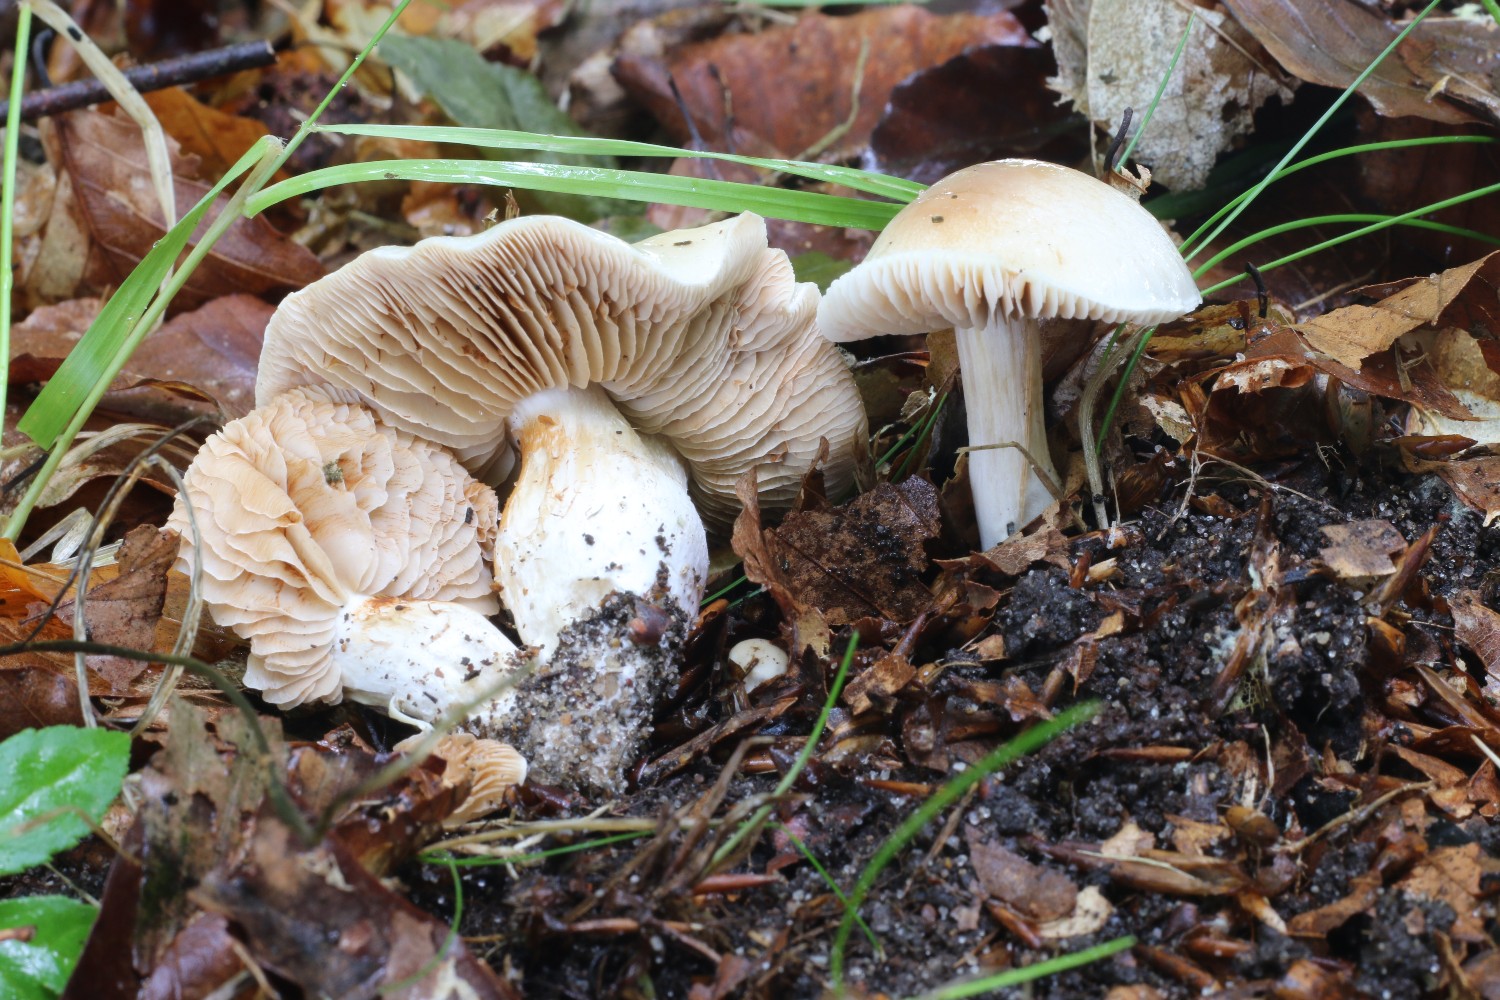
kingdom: Fungi
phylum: Basidiomycota
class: Agaricomycetes
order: Agaricales
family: Cortinariaceae
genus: Thaxterogaster
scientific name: Thaxterogaster barbatus
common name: elfenbens-slørhat
